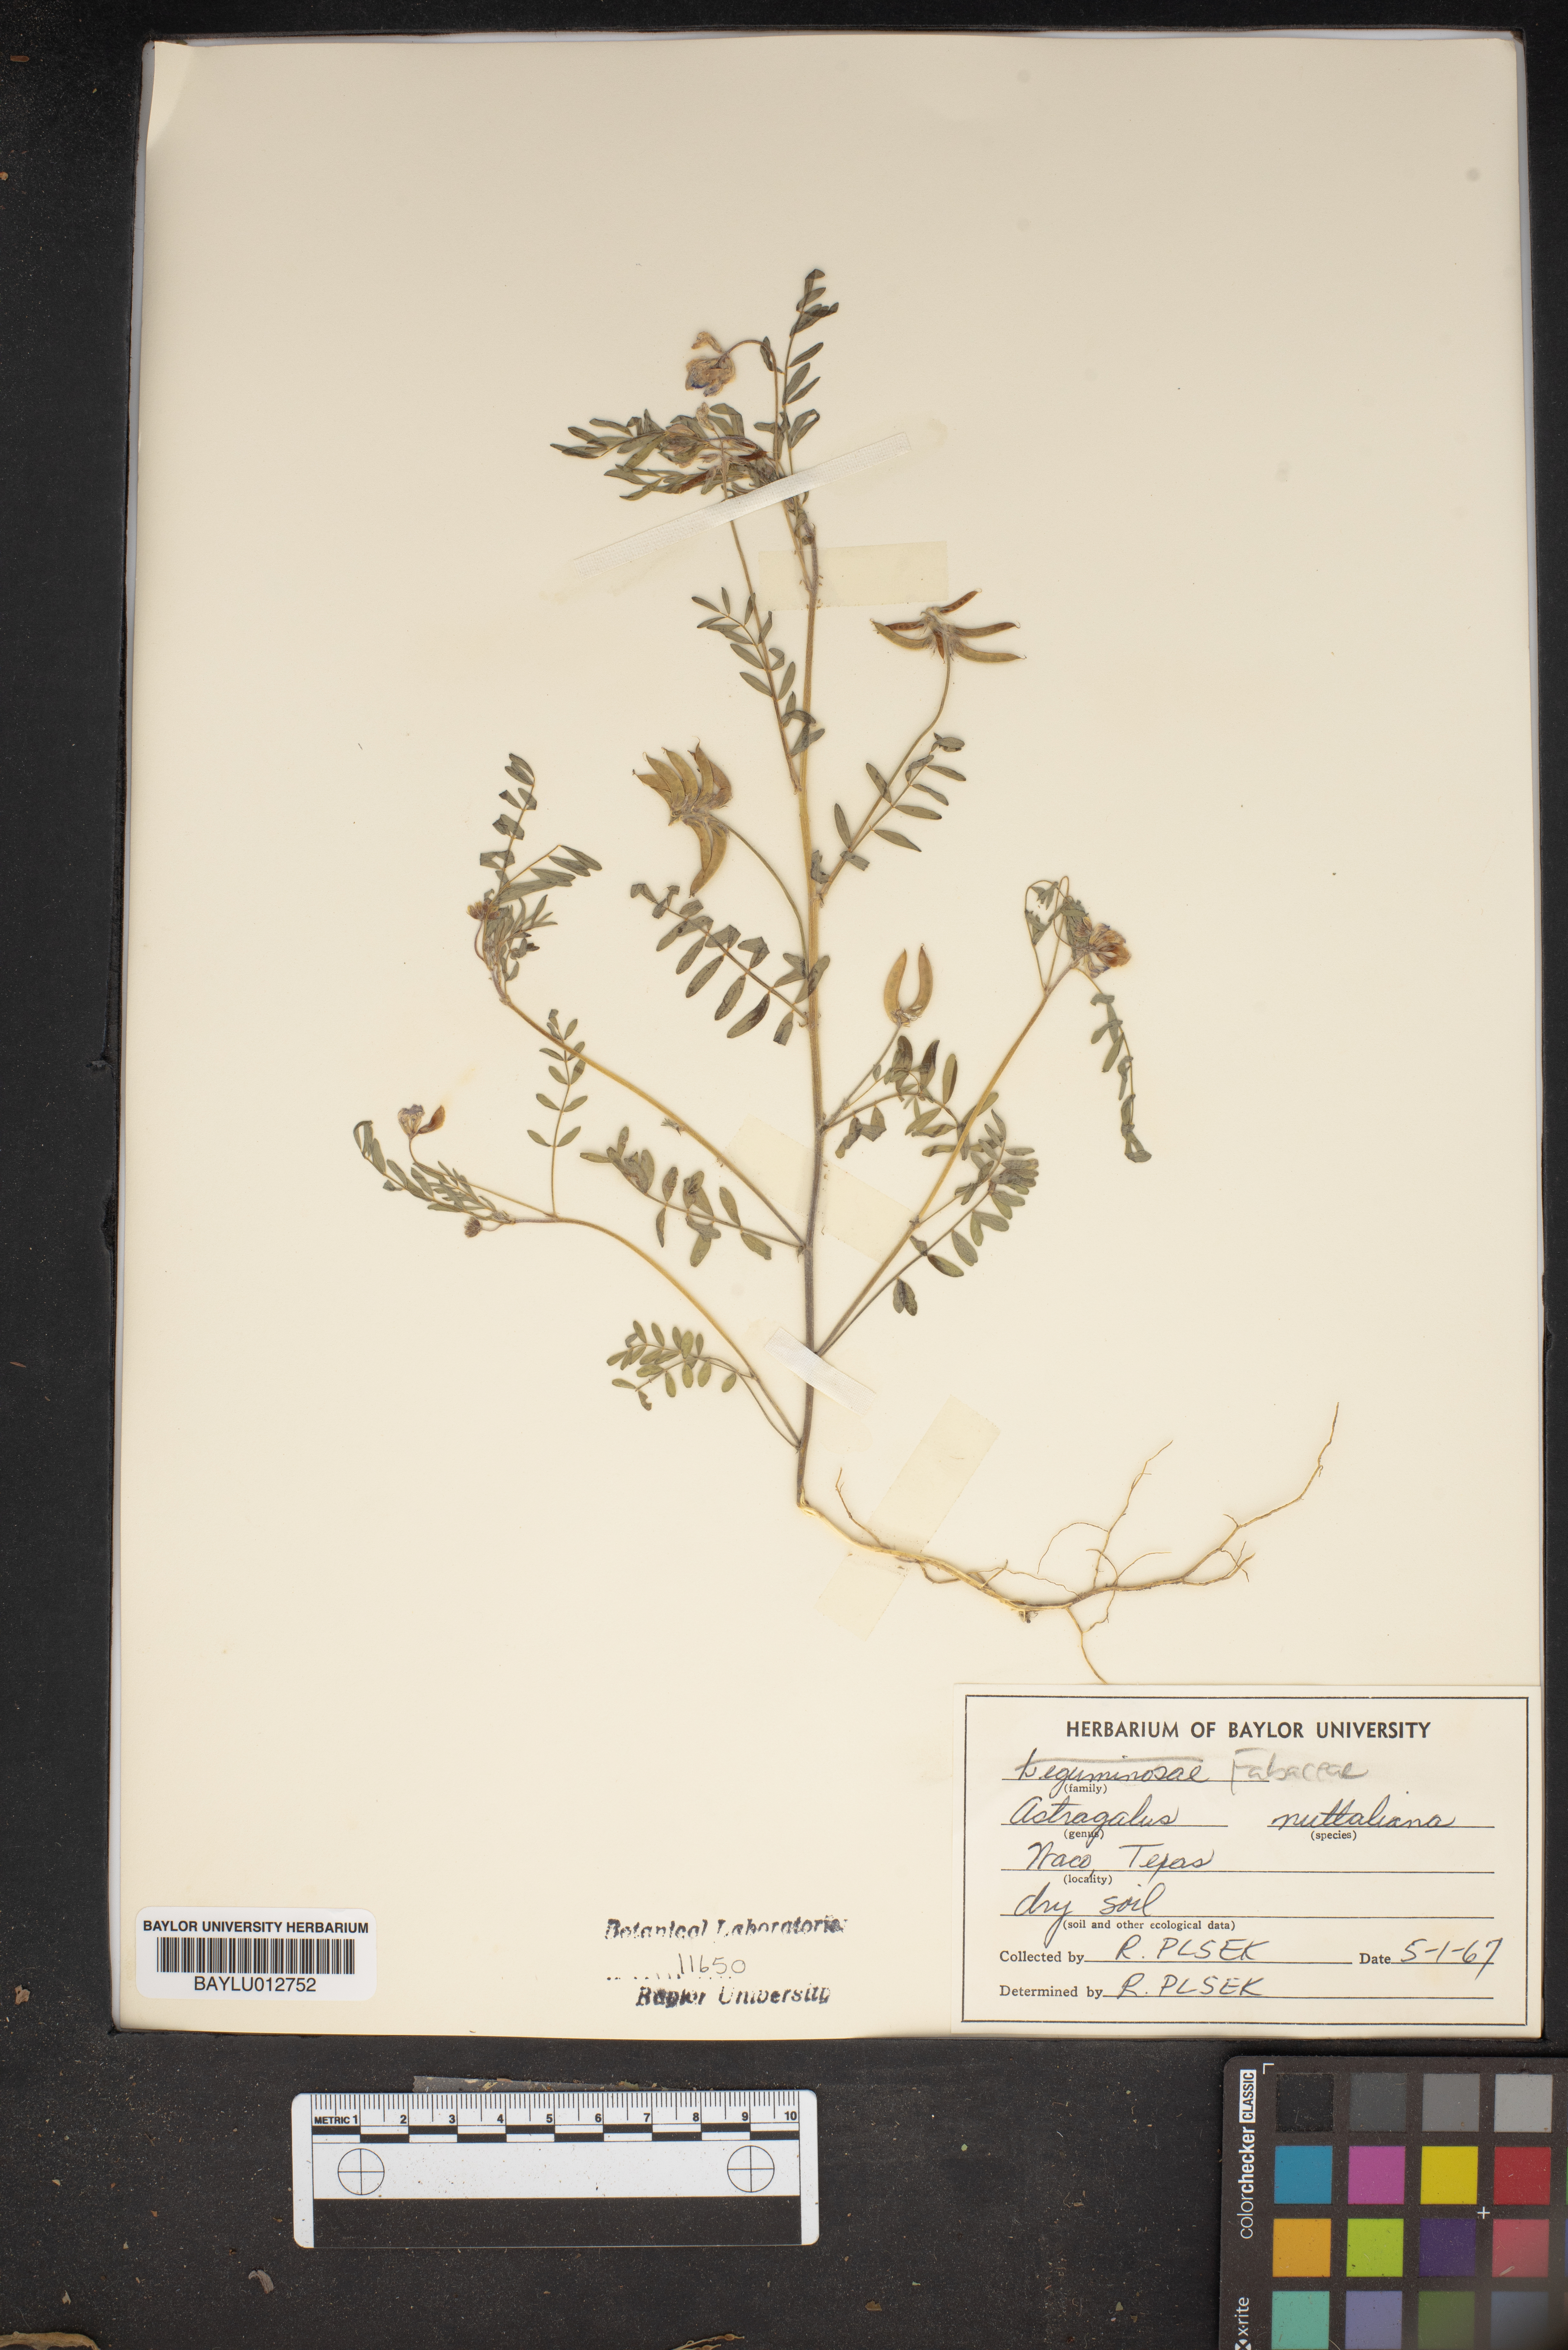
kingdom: Plantae
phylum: Tracheophyta
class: Magnoliopsida
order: Fabales
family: Fabaceae
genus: Astragalus
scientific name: Astragalus nuttallianus
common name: Smallflowered milkvetch
